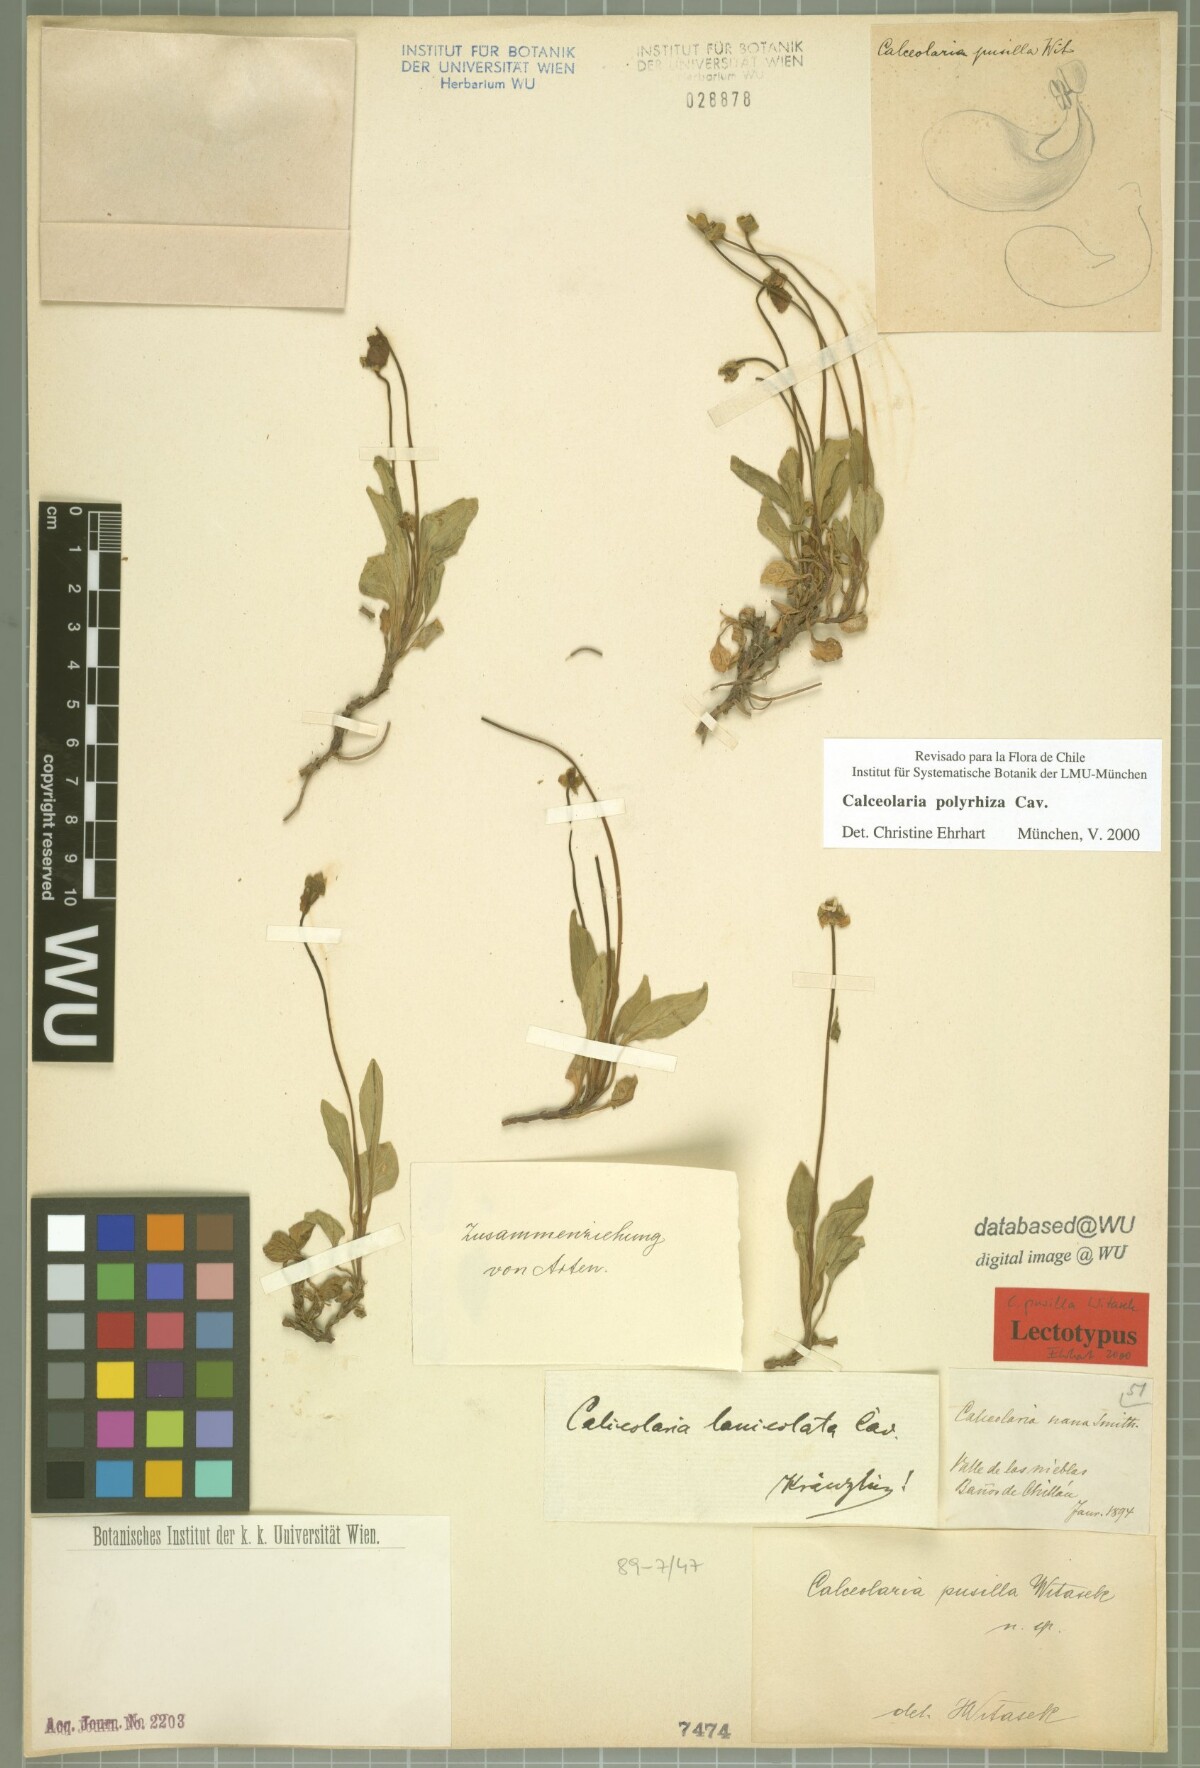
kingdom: Plantae
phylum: Tracheophyta
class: Magnoliopsida
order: Lamiales
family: Calceolariaceae
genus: Calceolaria
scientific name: Calceolaria polyrhiza
